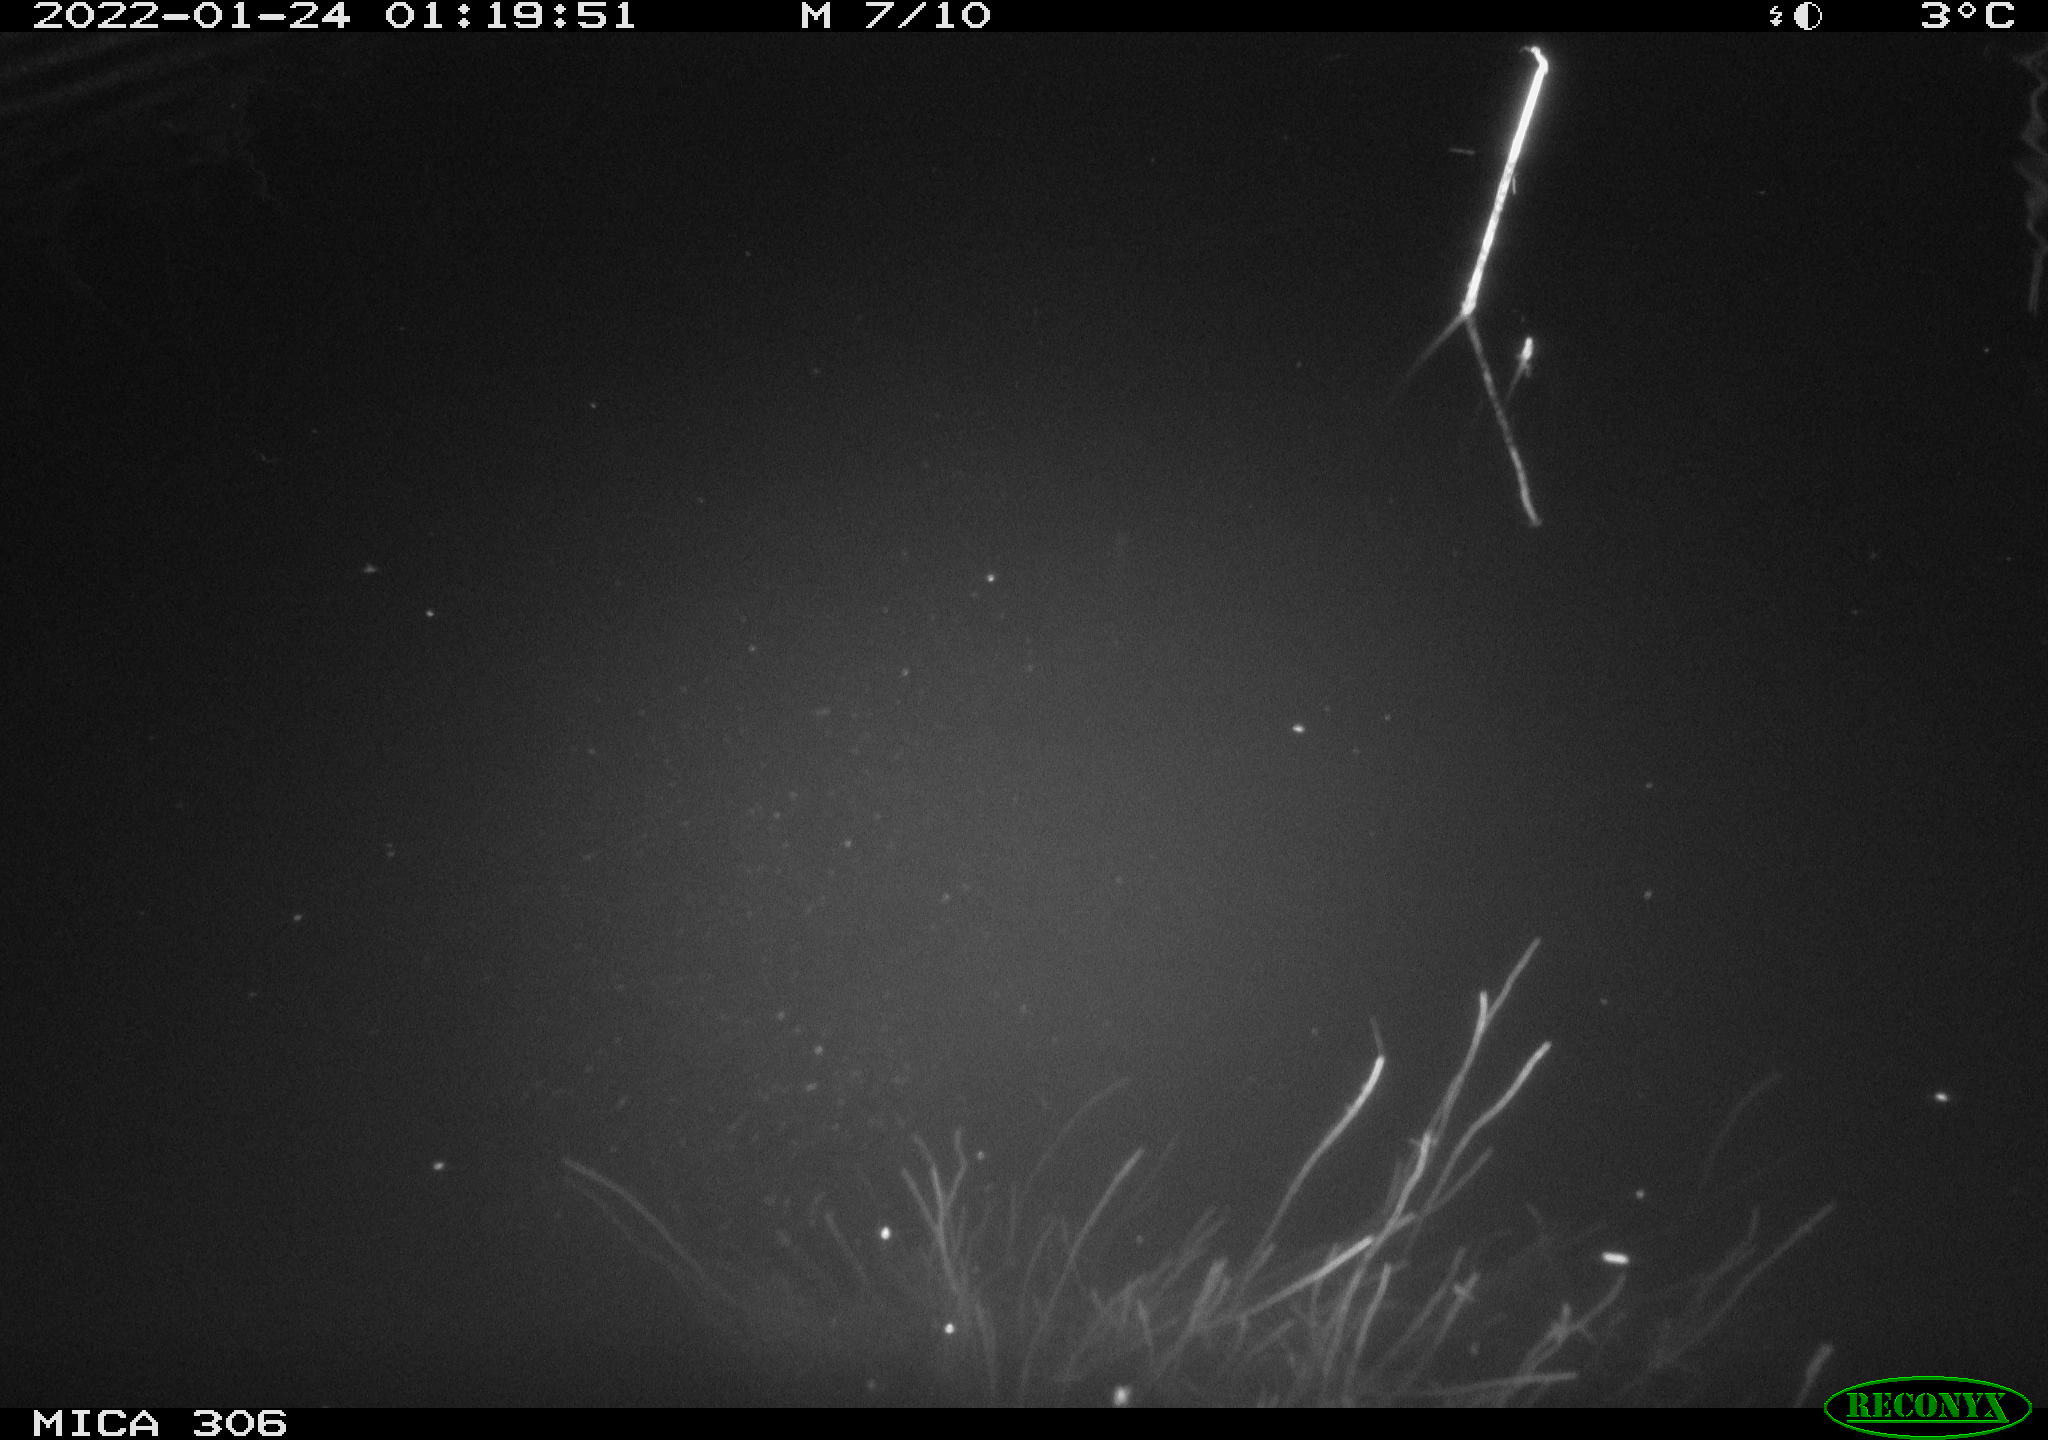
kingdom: Animalia
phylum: Chordata
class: Mammalia
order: Rodentia
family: Cricetidae
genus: Ondatra
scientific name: Ondatra zibethicus
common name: Muskrat
